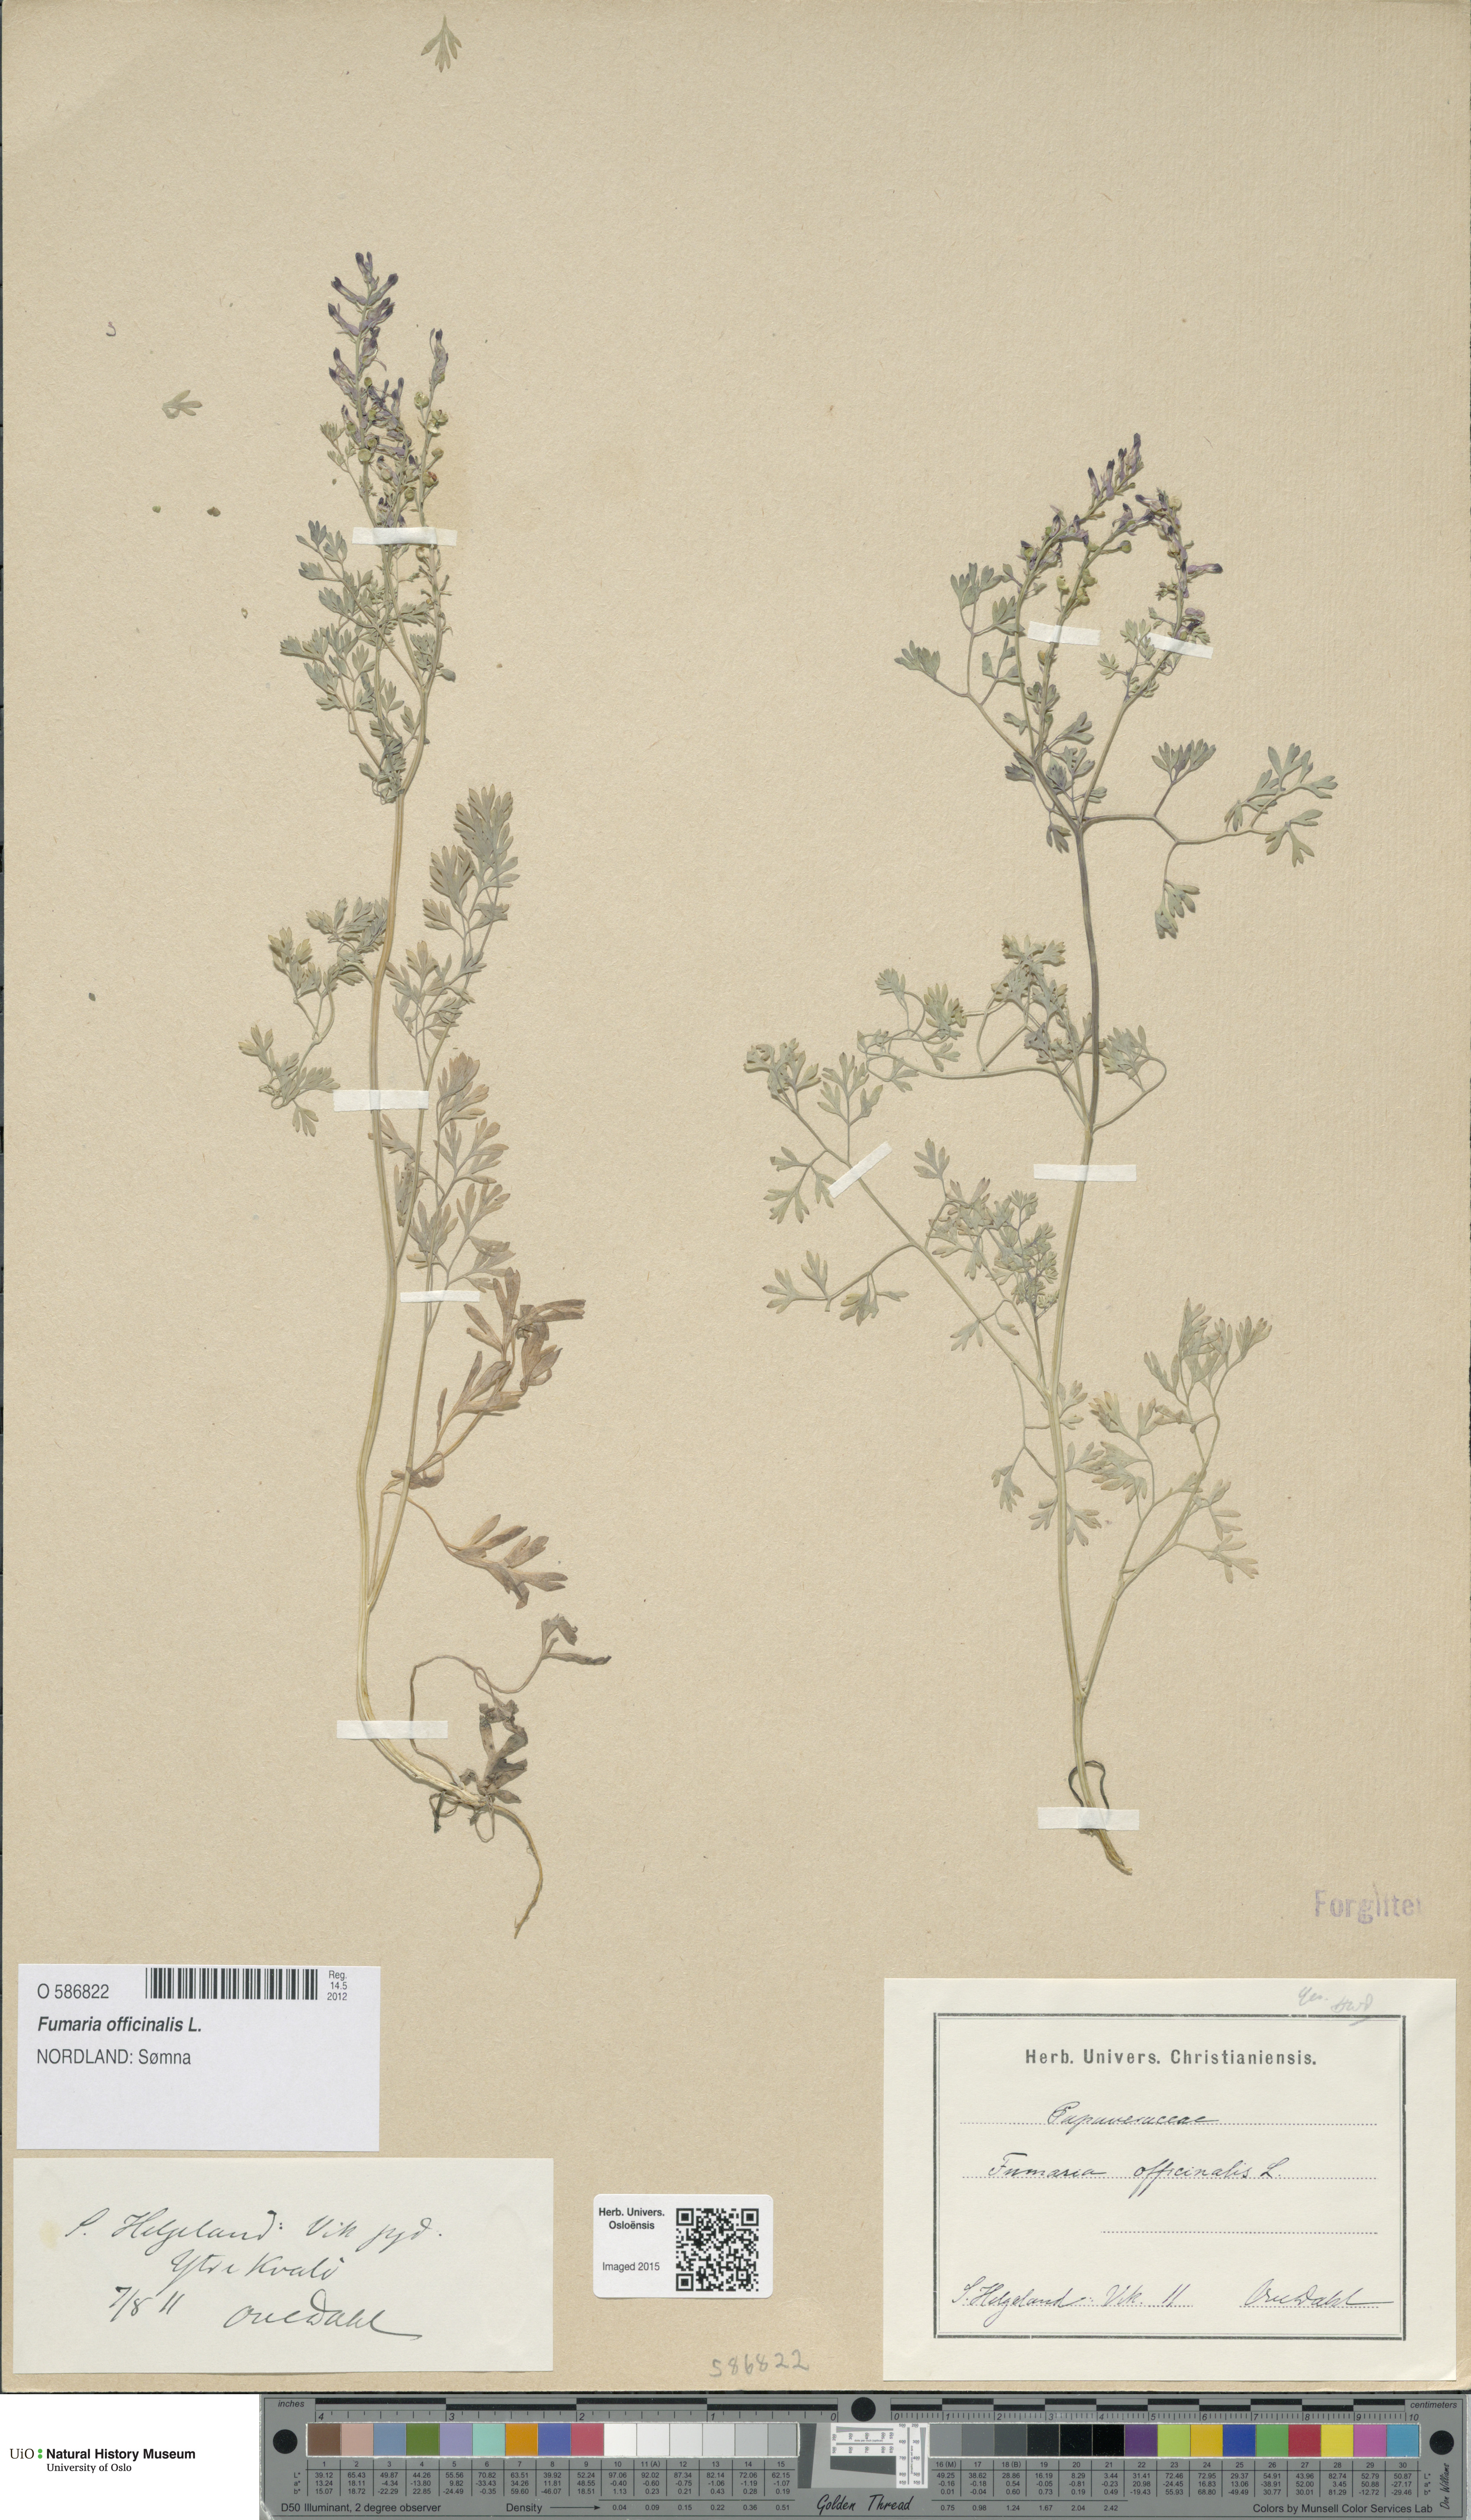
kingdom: Plantae
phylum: Tracheophyta
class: Magnoliopsida
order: Ranunculales
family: Papaveraceae
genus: Fumaria
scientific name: Fumaria officinalis
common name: Common fumitory
